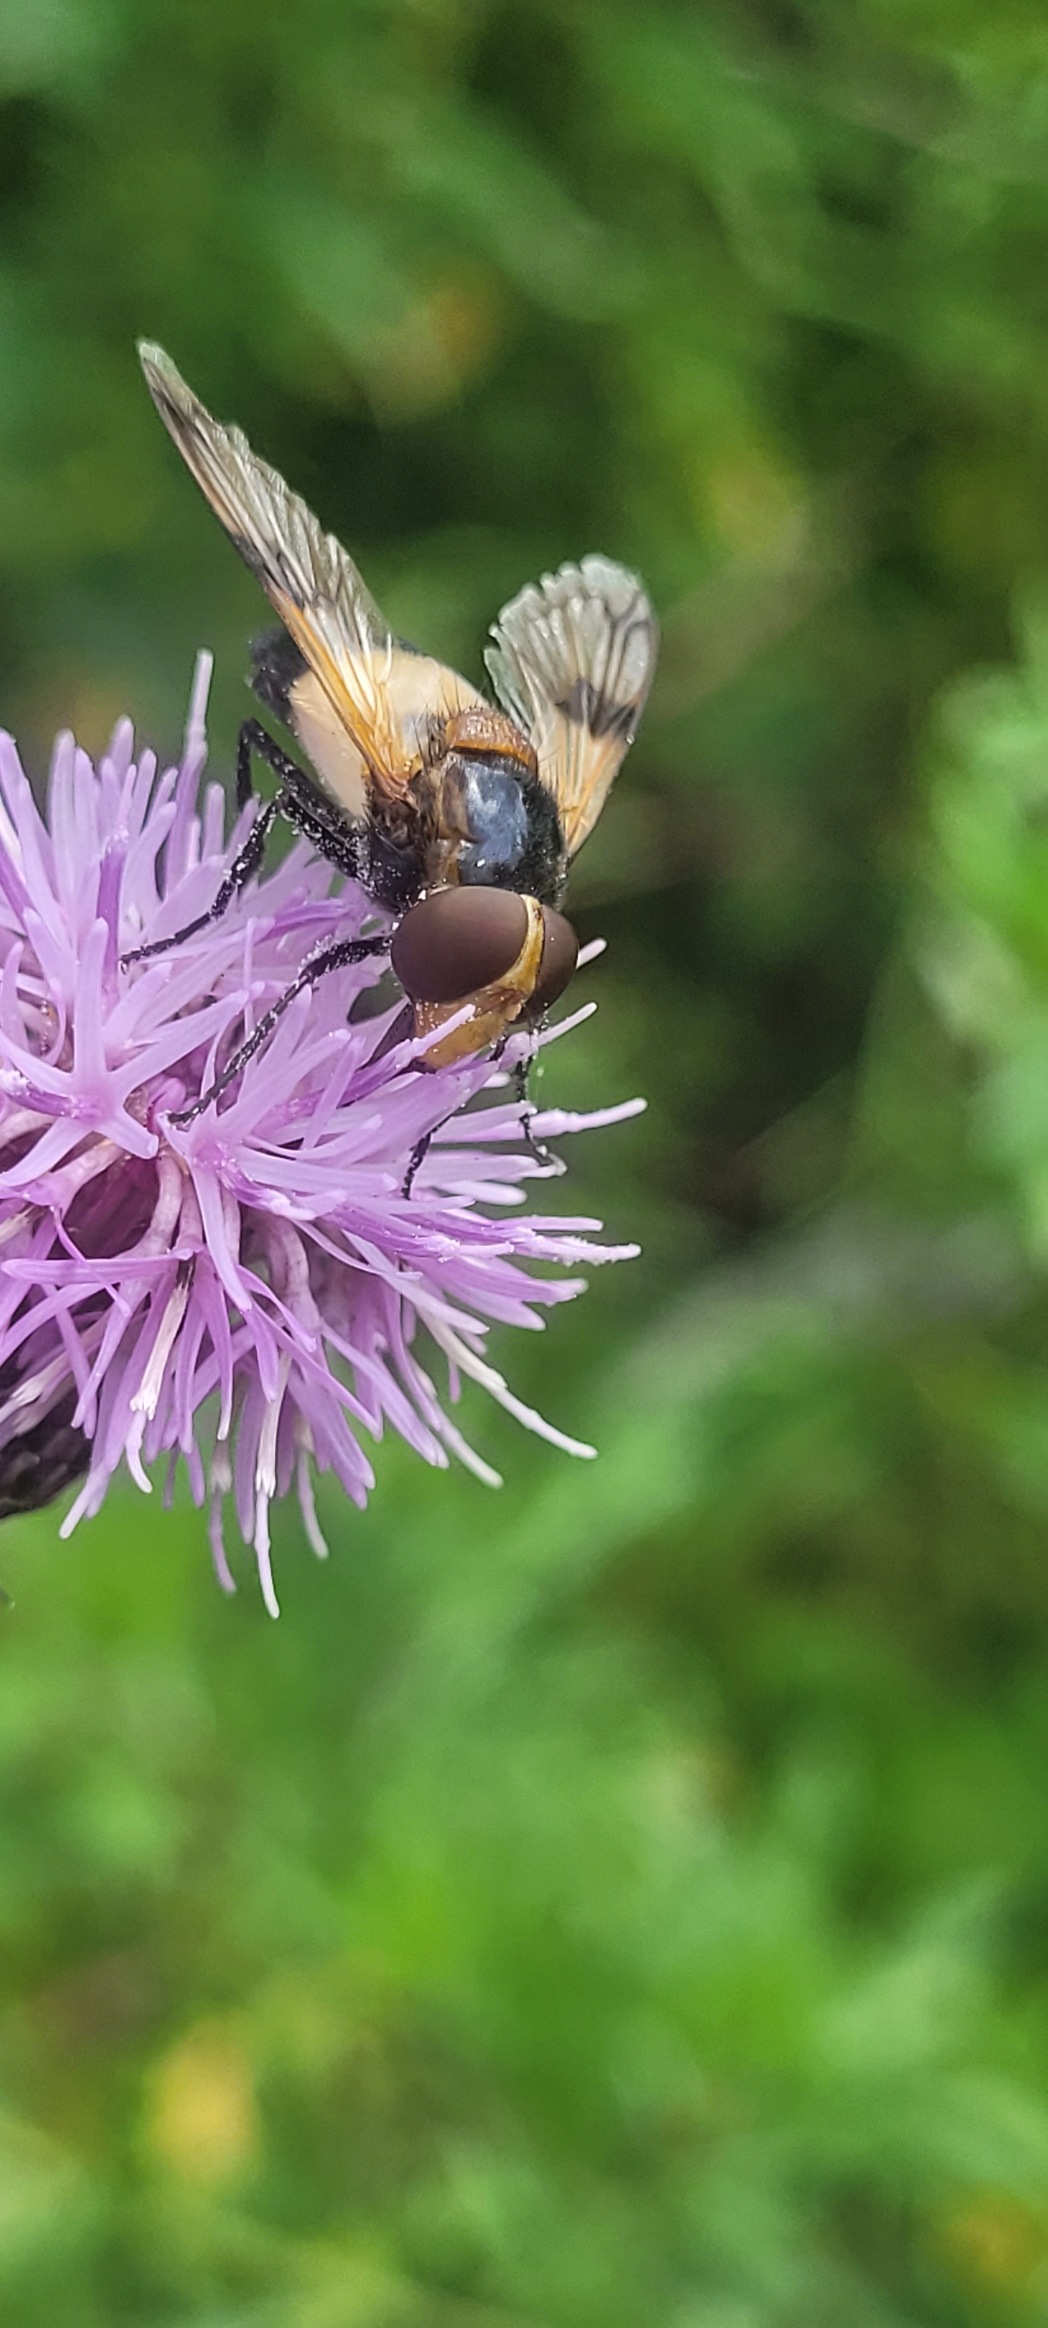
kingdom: Animalia
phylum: Arthropoda
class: Insecta
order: Diptera
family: Syrphidae
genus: Volucella
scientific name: Volucella pellucens
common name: Hvidbåndet humlesvirreflue
